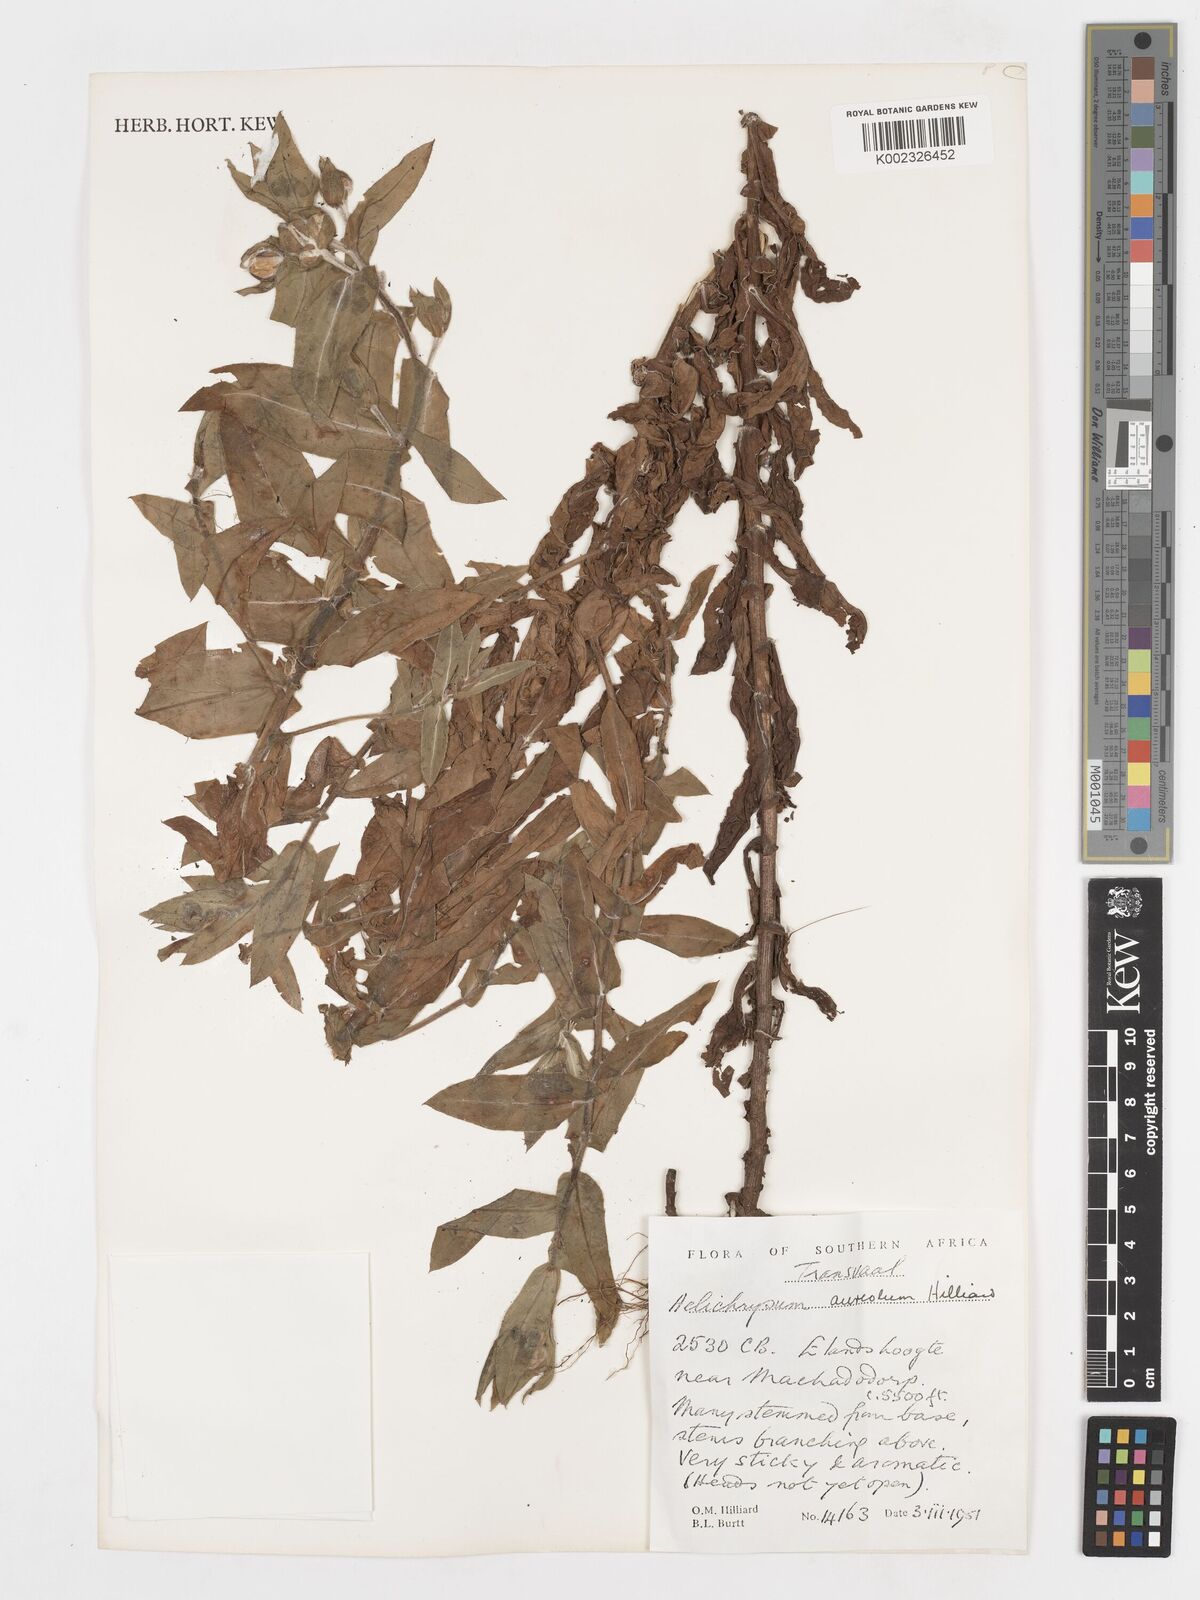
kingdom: Plantae
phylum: Tracheophyta
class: Magnoliopsida
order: Asterales
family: Asteraceae
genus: Helichrysum
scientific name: Helichrysum aureolum
